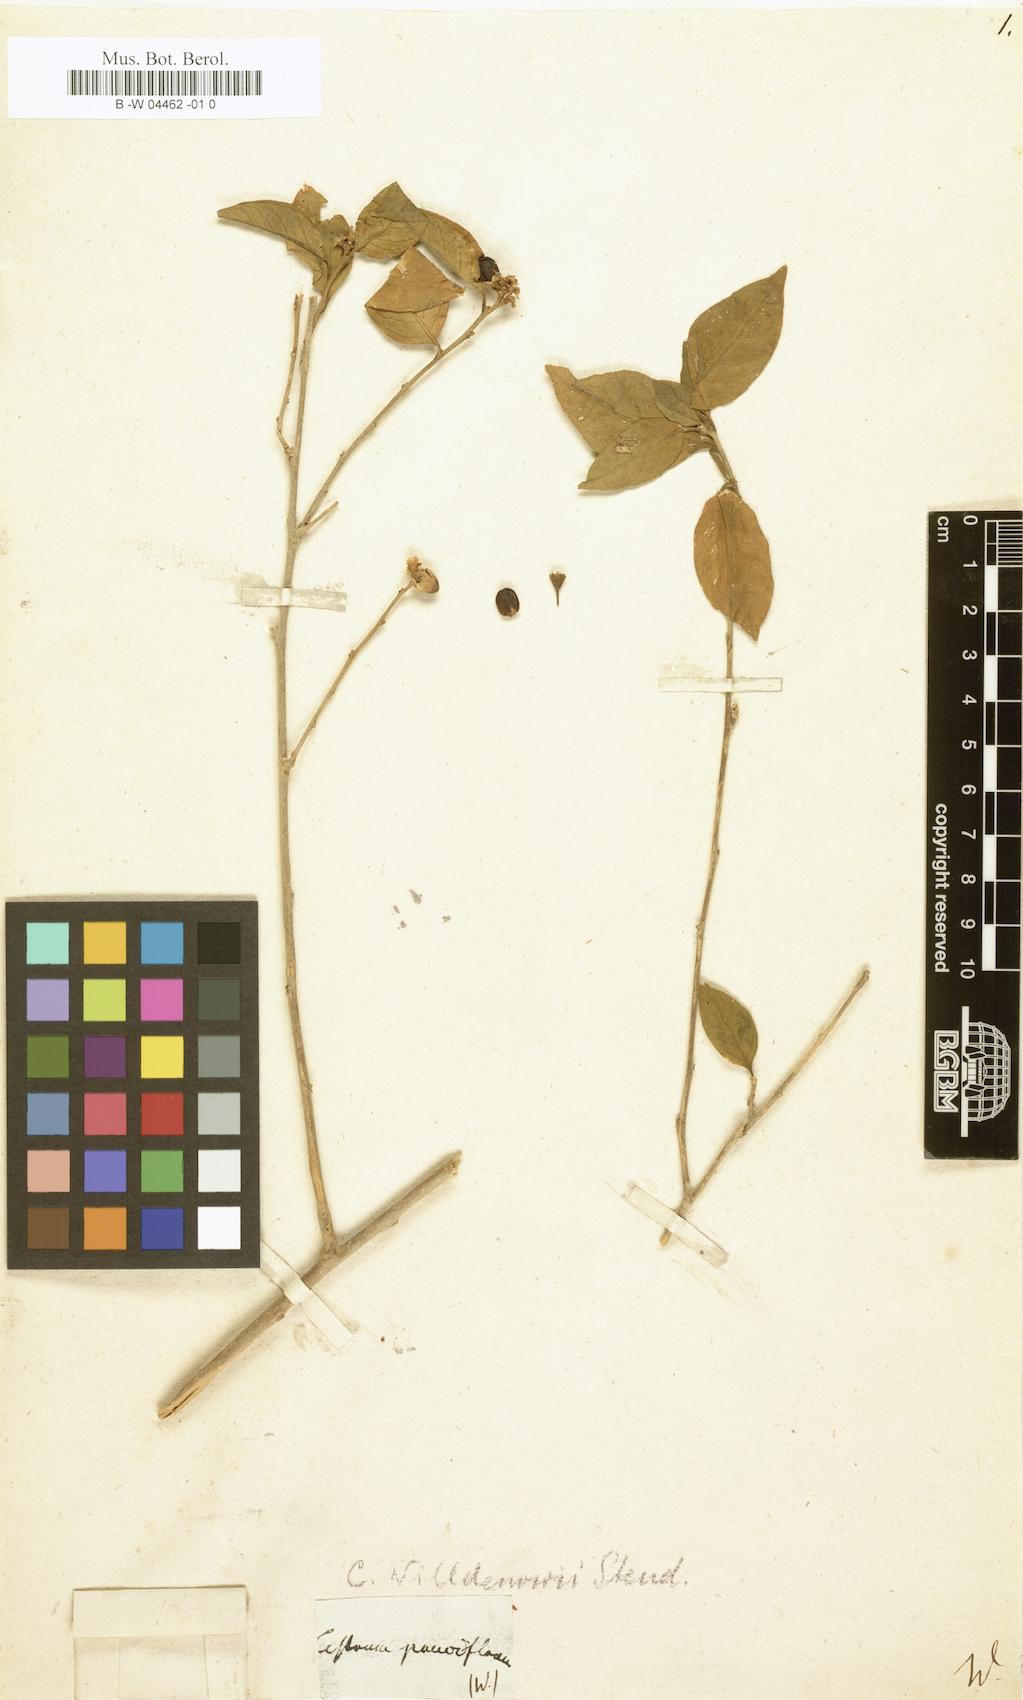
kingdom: Plantae
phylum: Tracheophyta
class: Magnoliopsida
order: Solanales
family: Solanaceae
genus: Cestrum
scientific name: Cestrum pauciflorum
